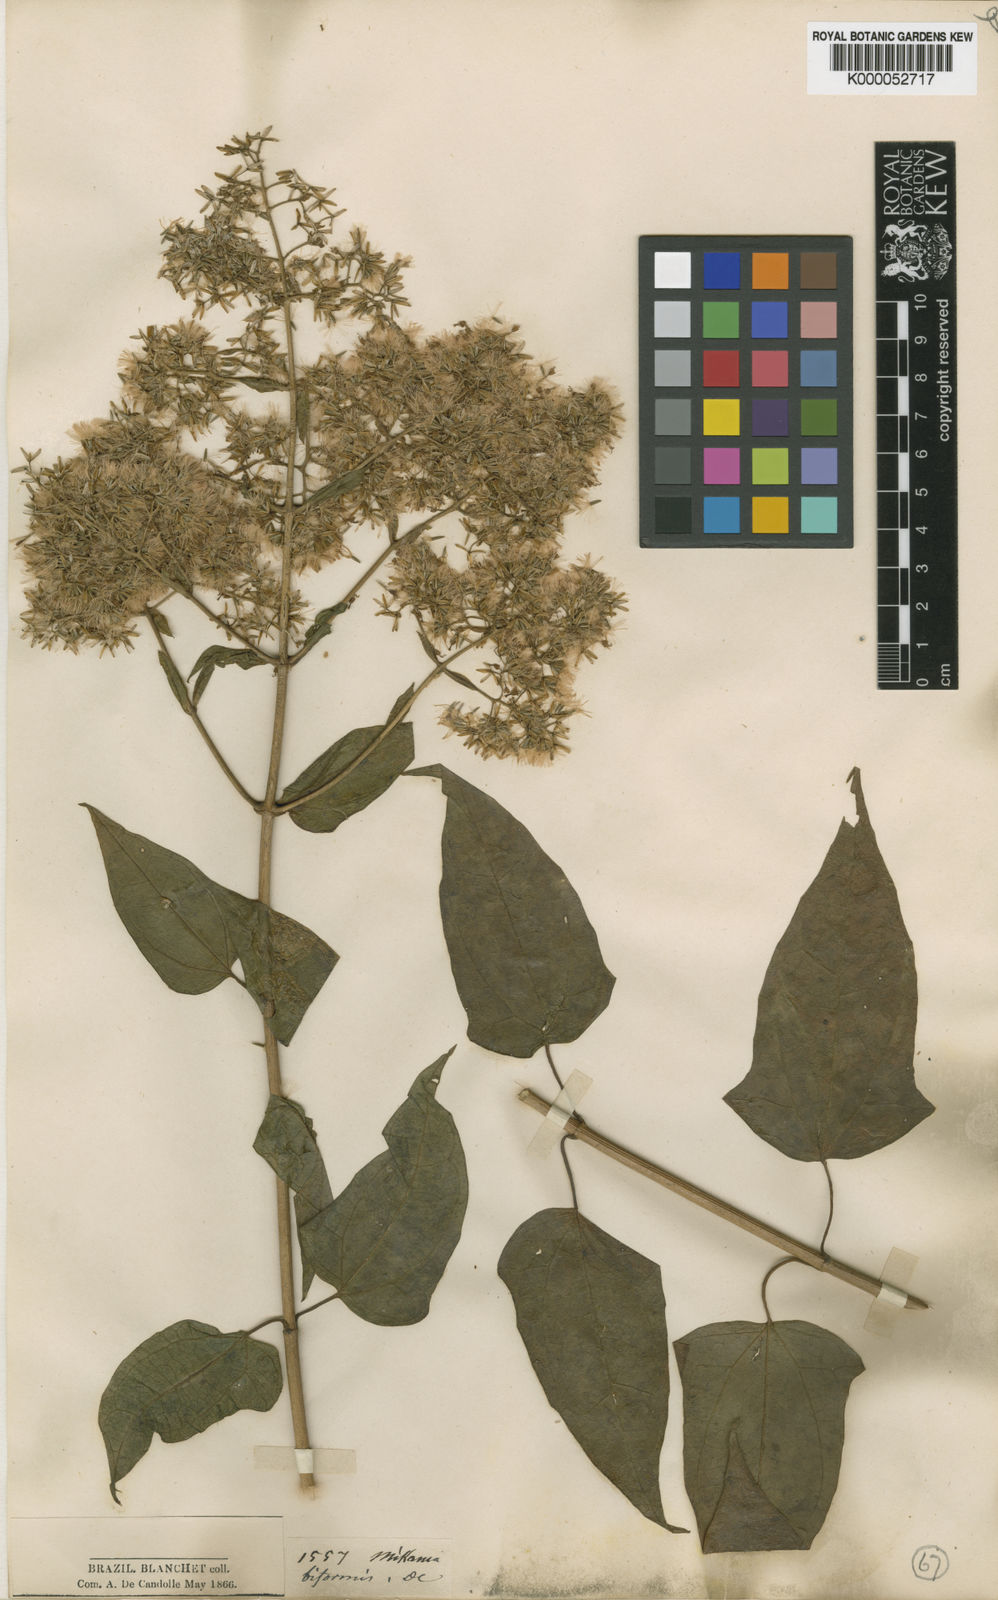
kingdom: Plantae
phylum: Tracheophyta
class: Magnoliopsida
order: Asterales
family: Asteraceae
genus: Mikania
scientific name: Mikania biformis
